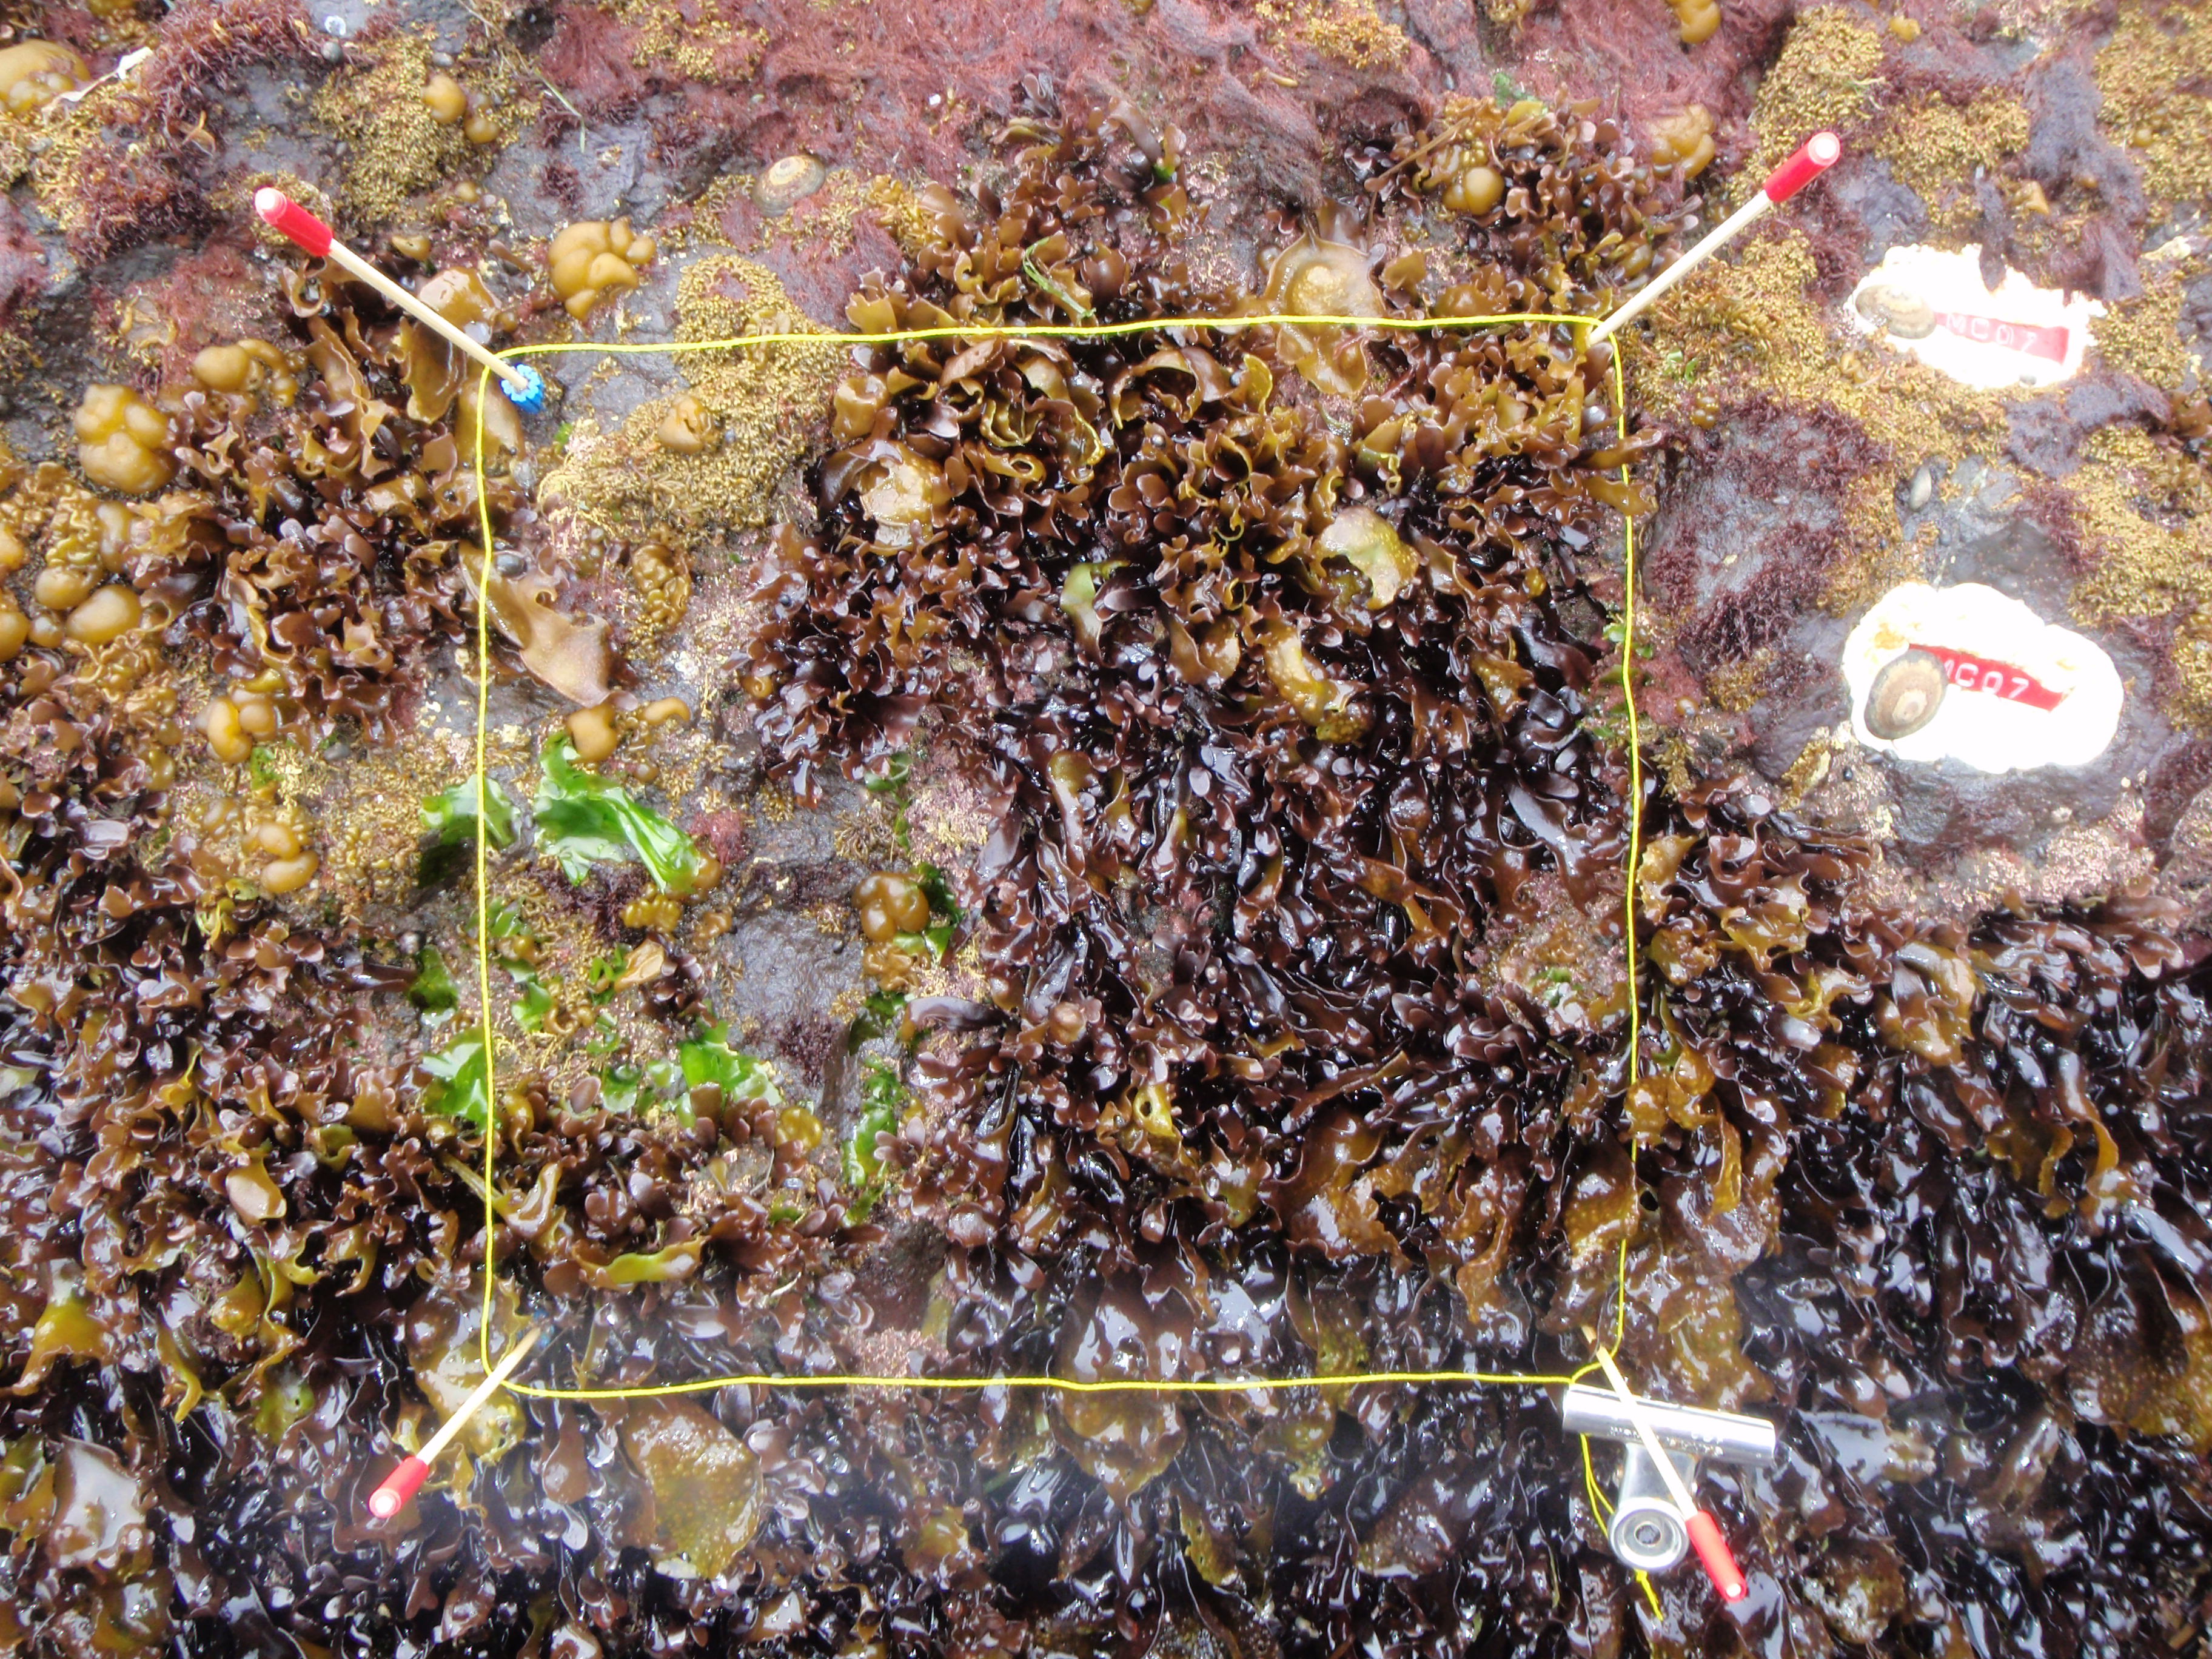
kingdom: Plantae
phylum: Rhodophyta
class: Florideophyceae
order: Gigartinales
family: Endocladiaceae
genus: Gloiopeltis
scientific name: Gloiopeltis furcata
